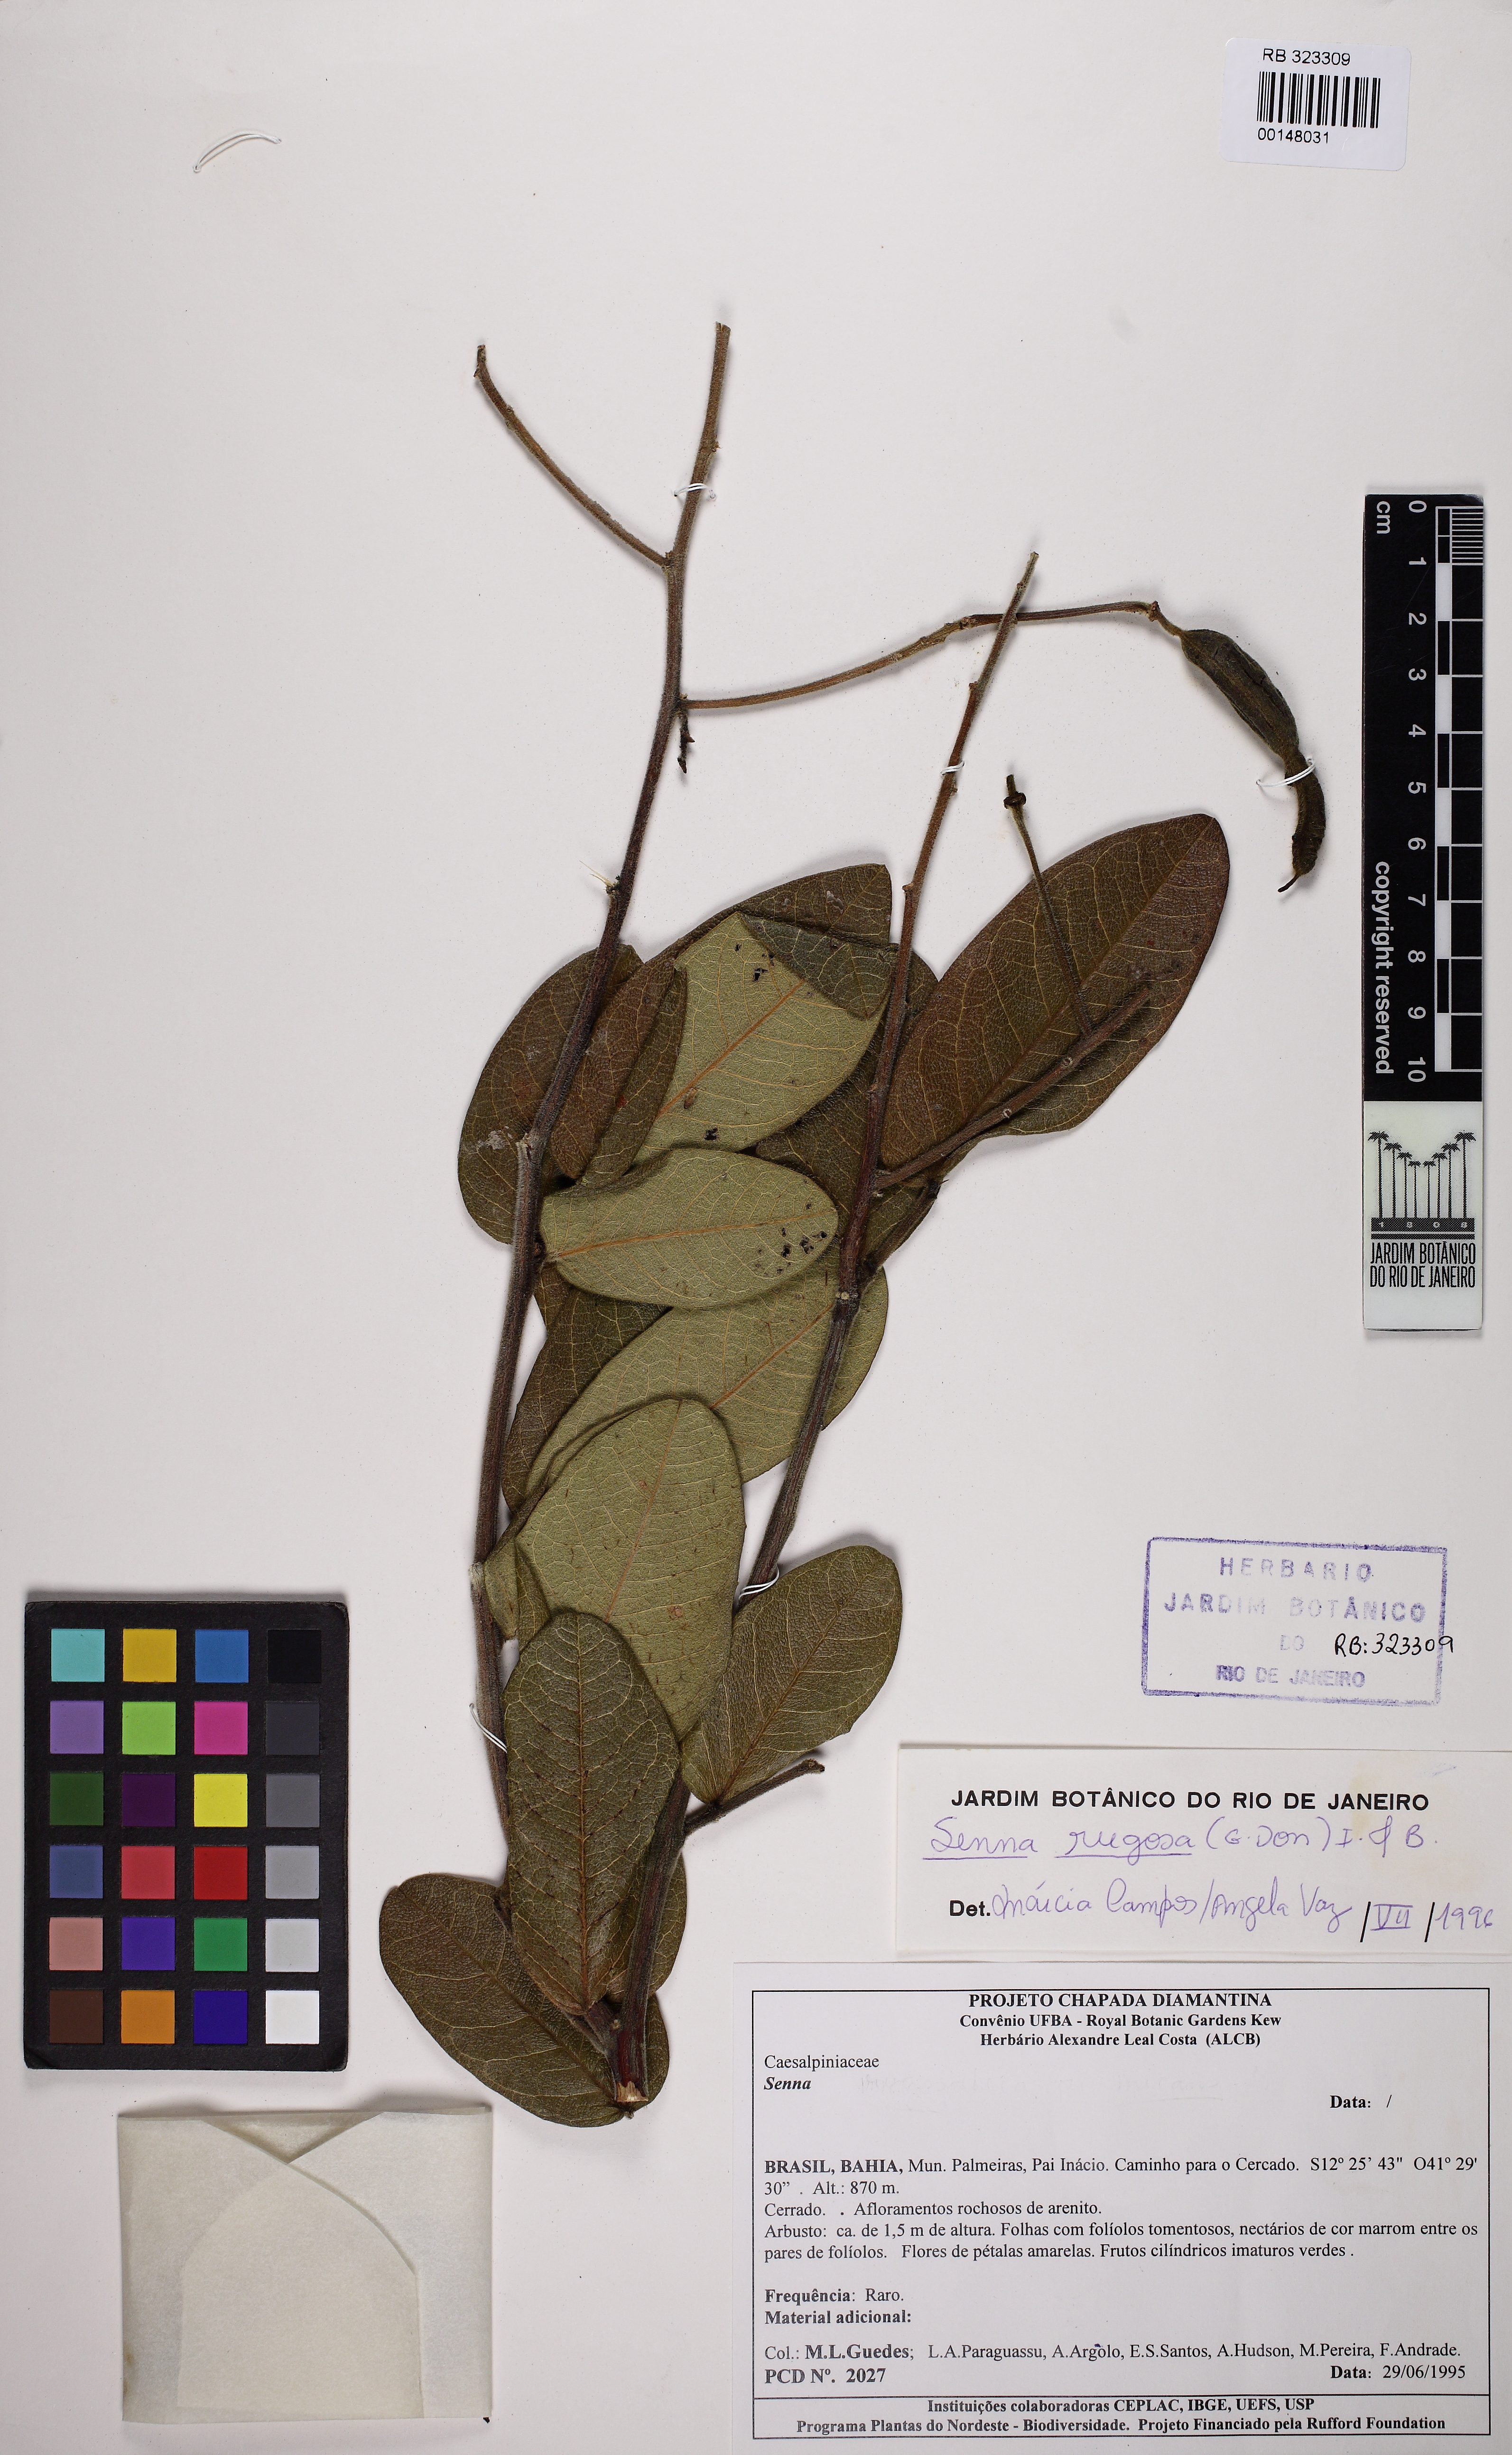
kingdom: Plantae
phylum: Tracheophyta
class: Magnoliopsida
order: Fabales
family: Fabaceae
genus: Senna
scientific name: Senna rugosa
